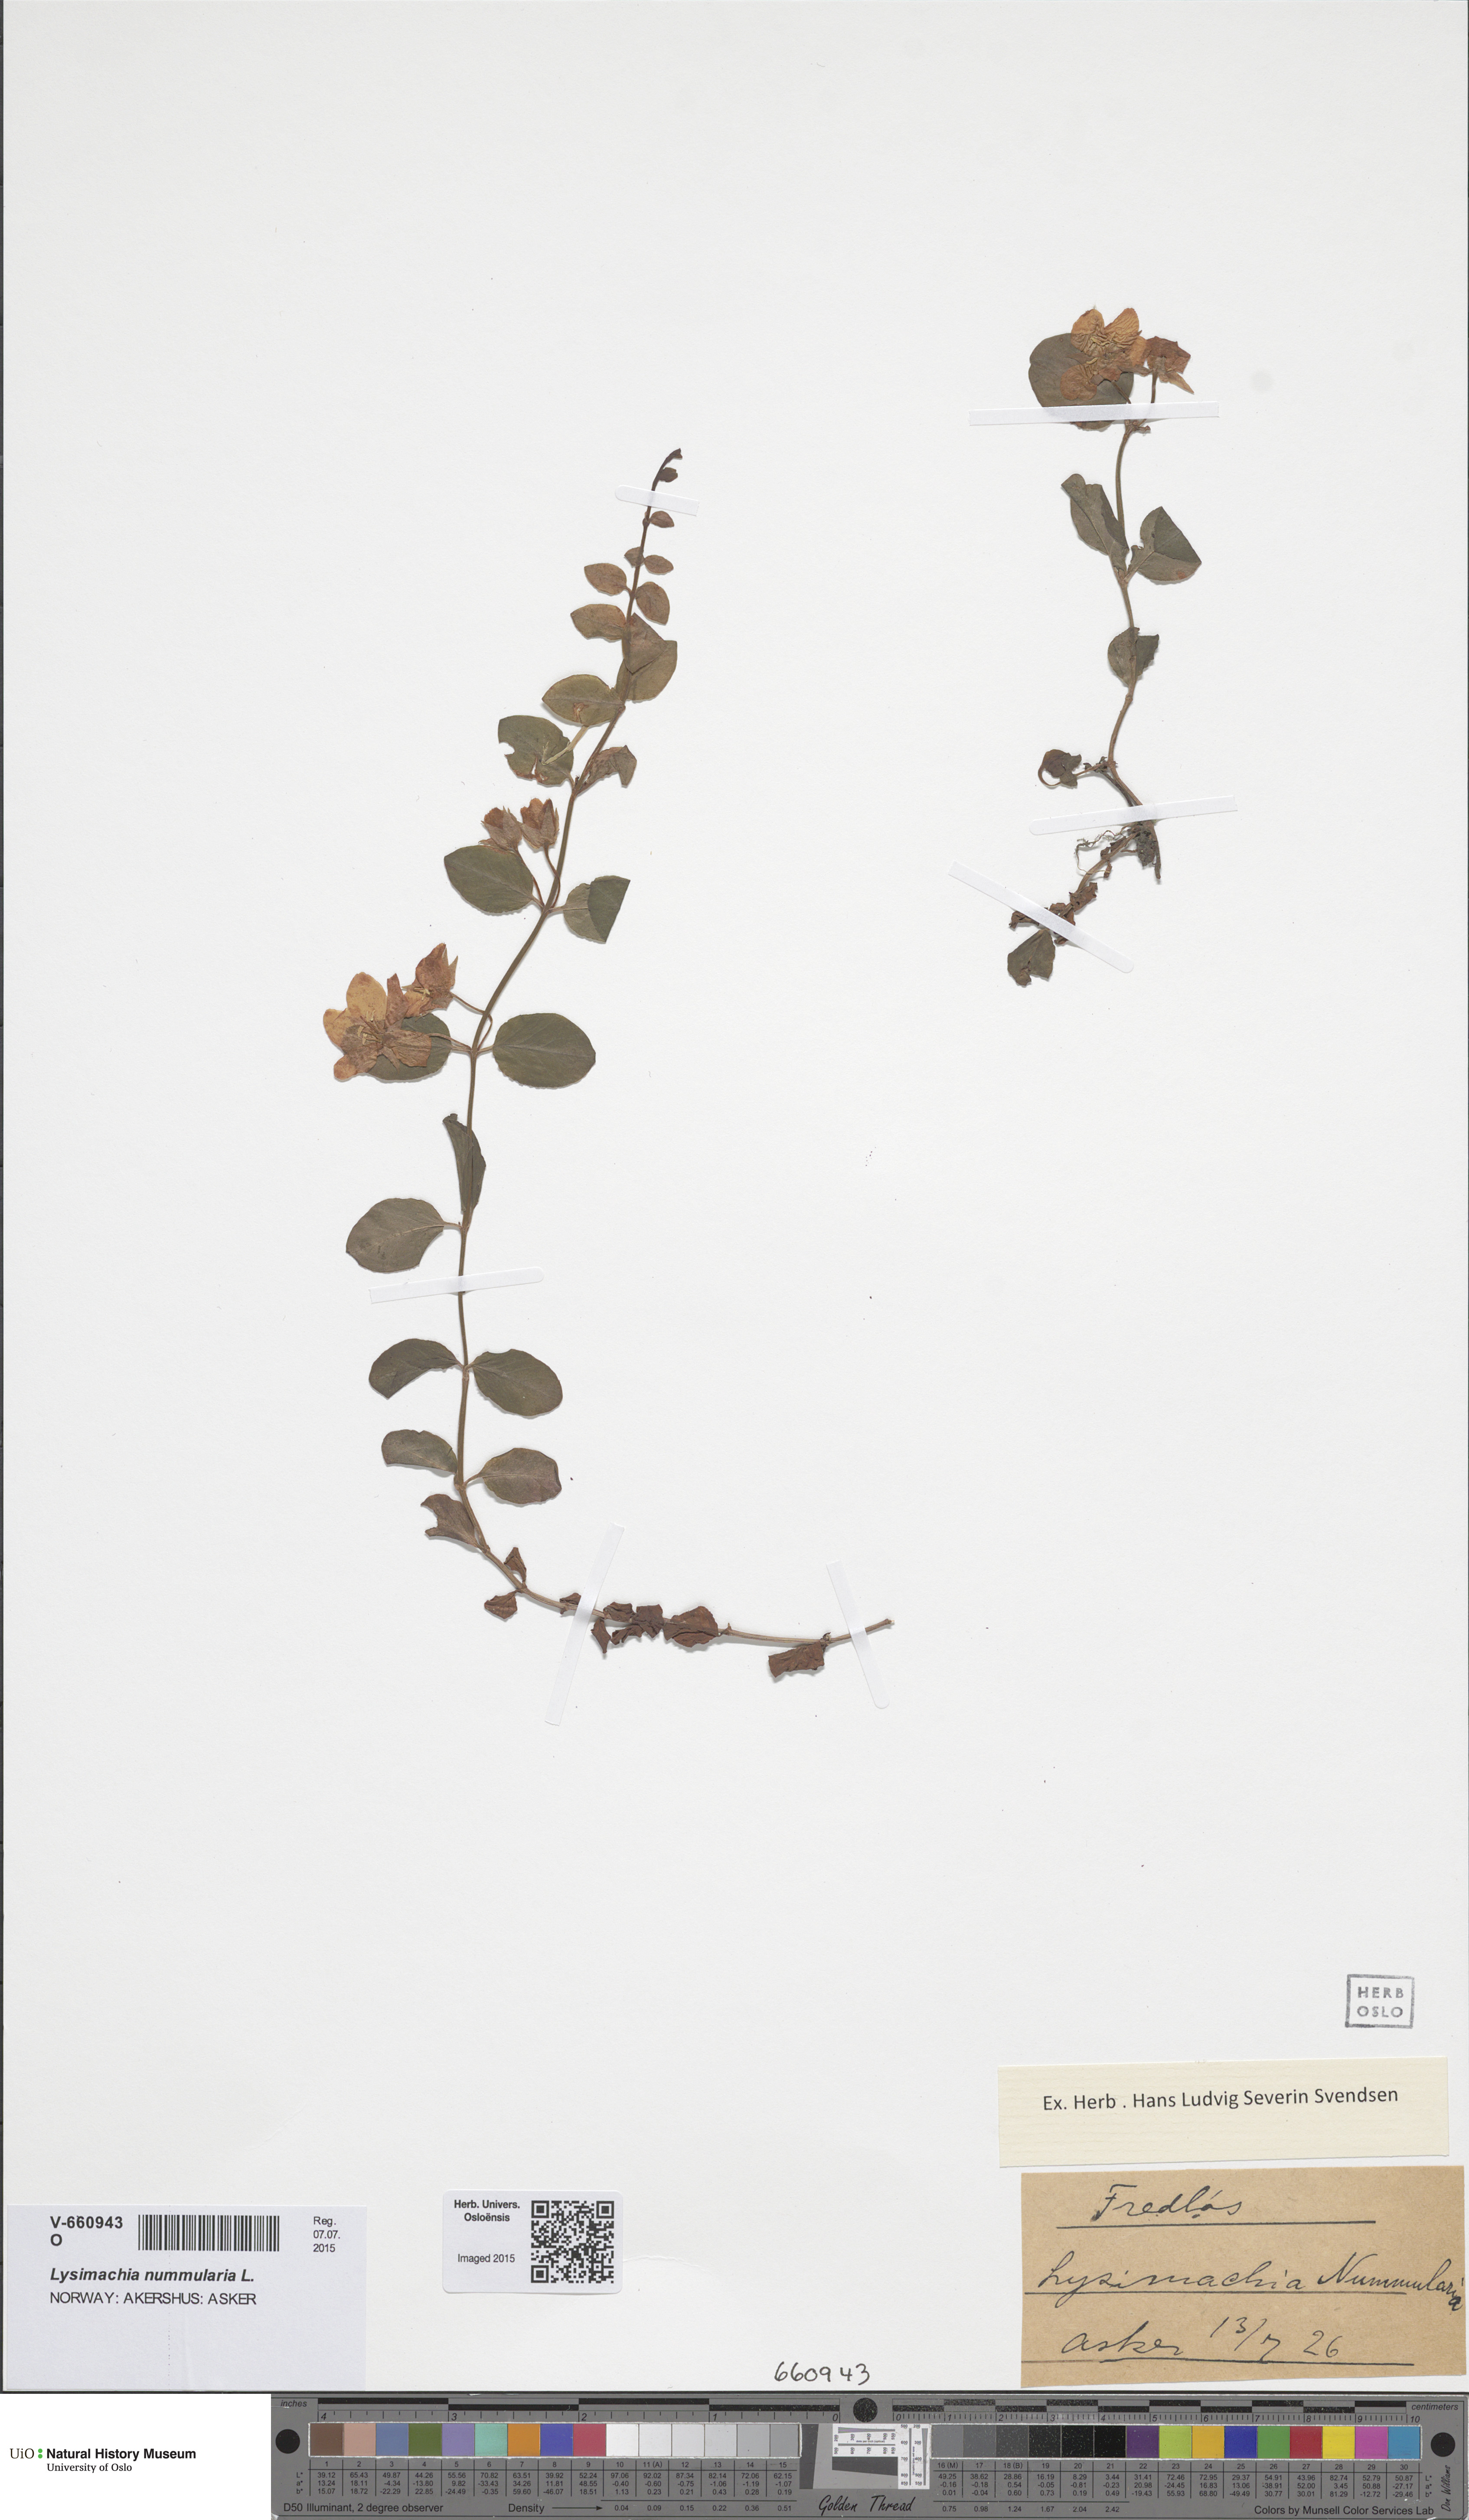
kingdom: Plantae
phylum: Tracheophyta
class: Magnoliopsida
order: Ericales
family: Primulaceae
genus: Lysimachia
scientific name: Lysimachia nummularia
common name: Moneywort
